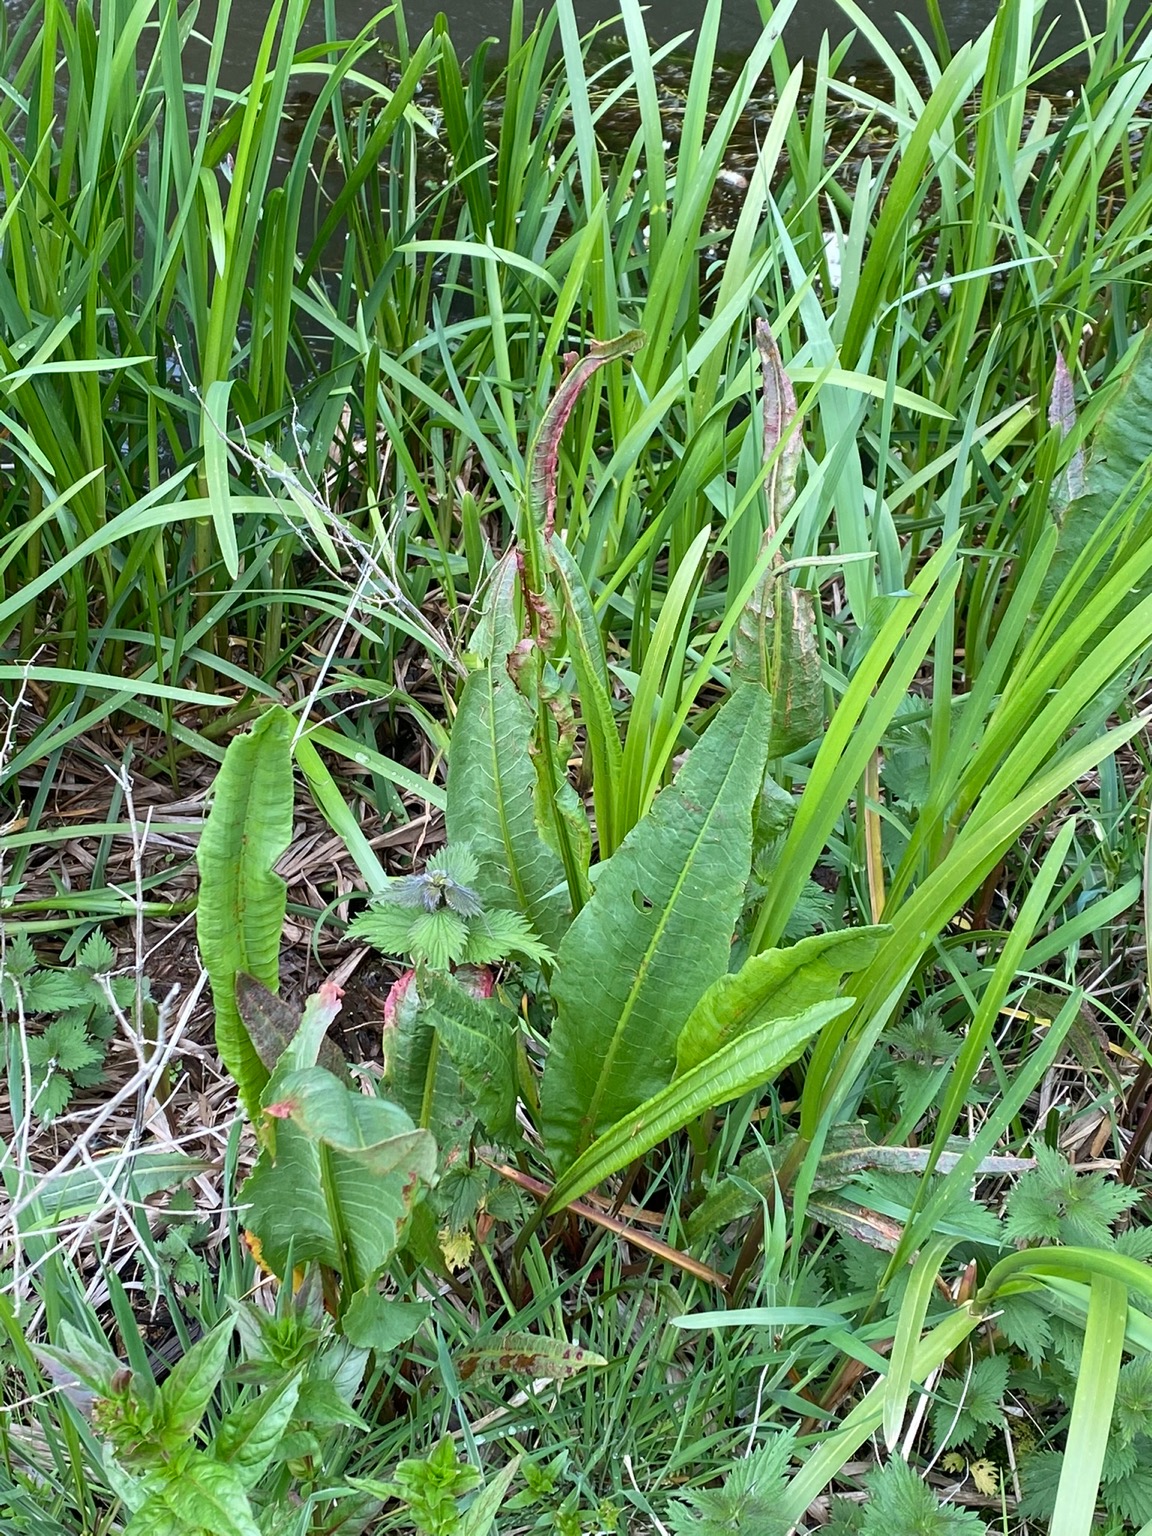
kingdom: Plantae
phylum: Tracheophyta
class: Magnoliopsida
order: Caryophyllales
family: Polygonaceae
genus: Rumex
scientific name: Rumex hydrolapathum
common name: Vand-skræppe
